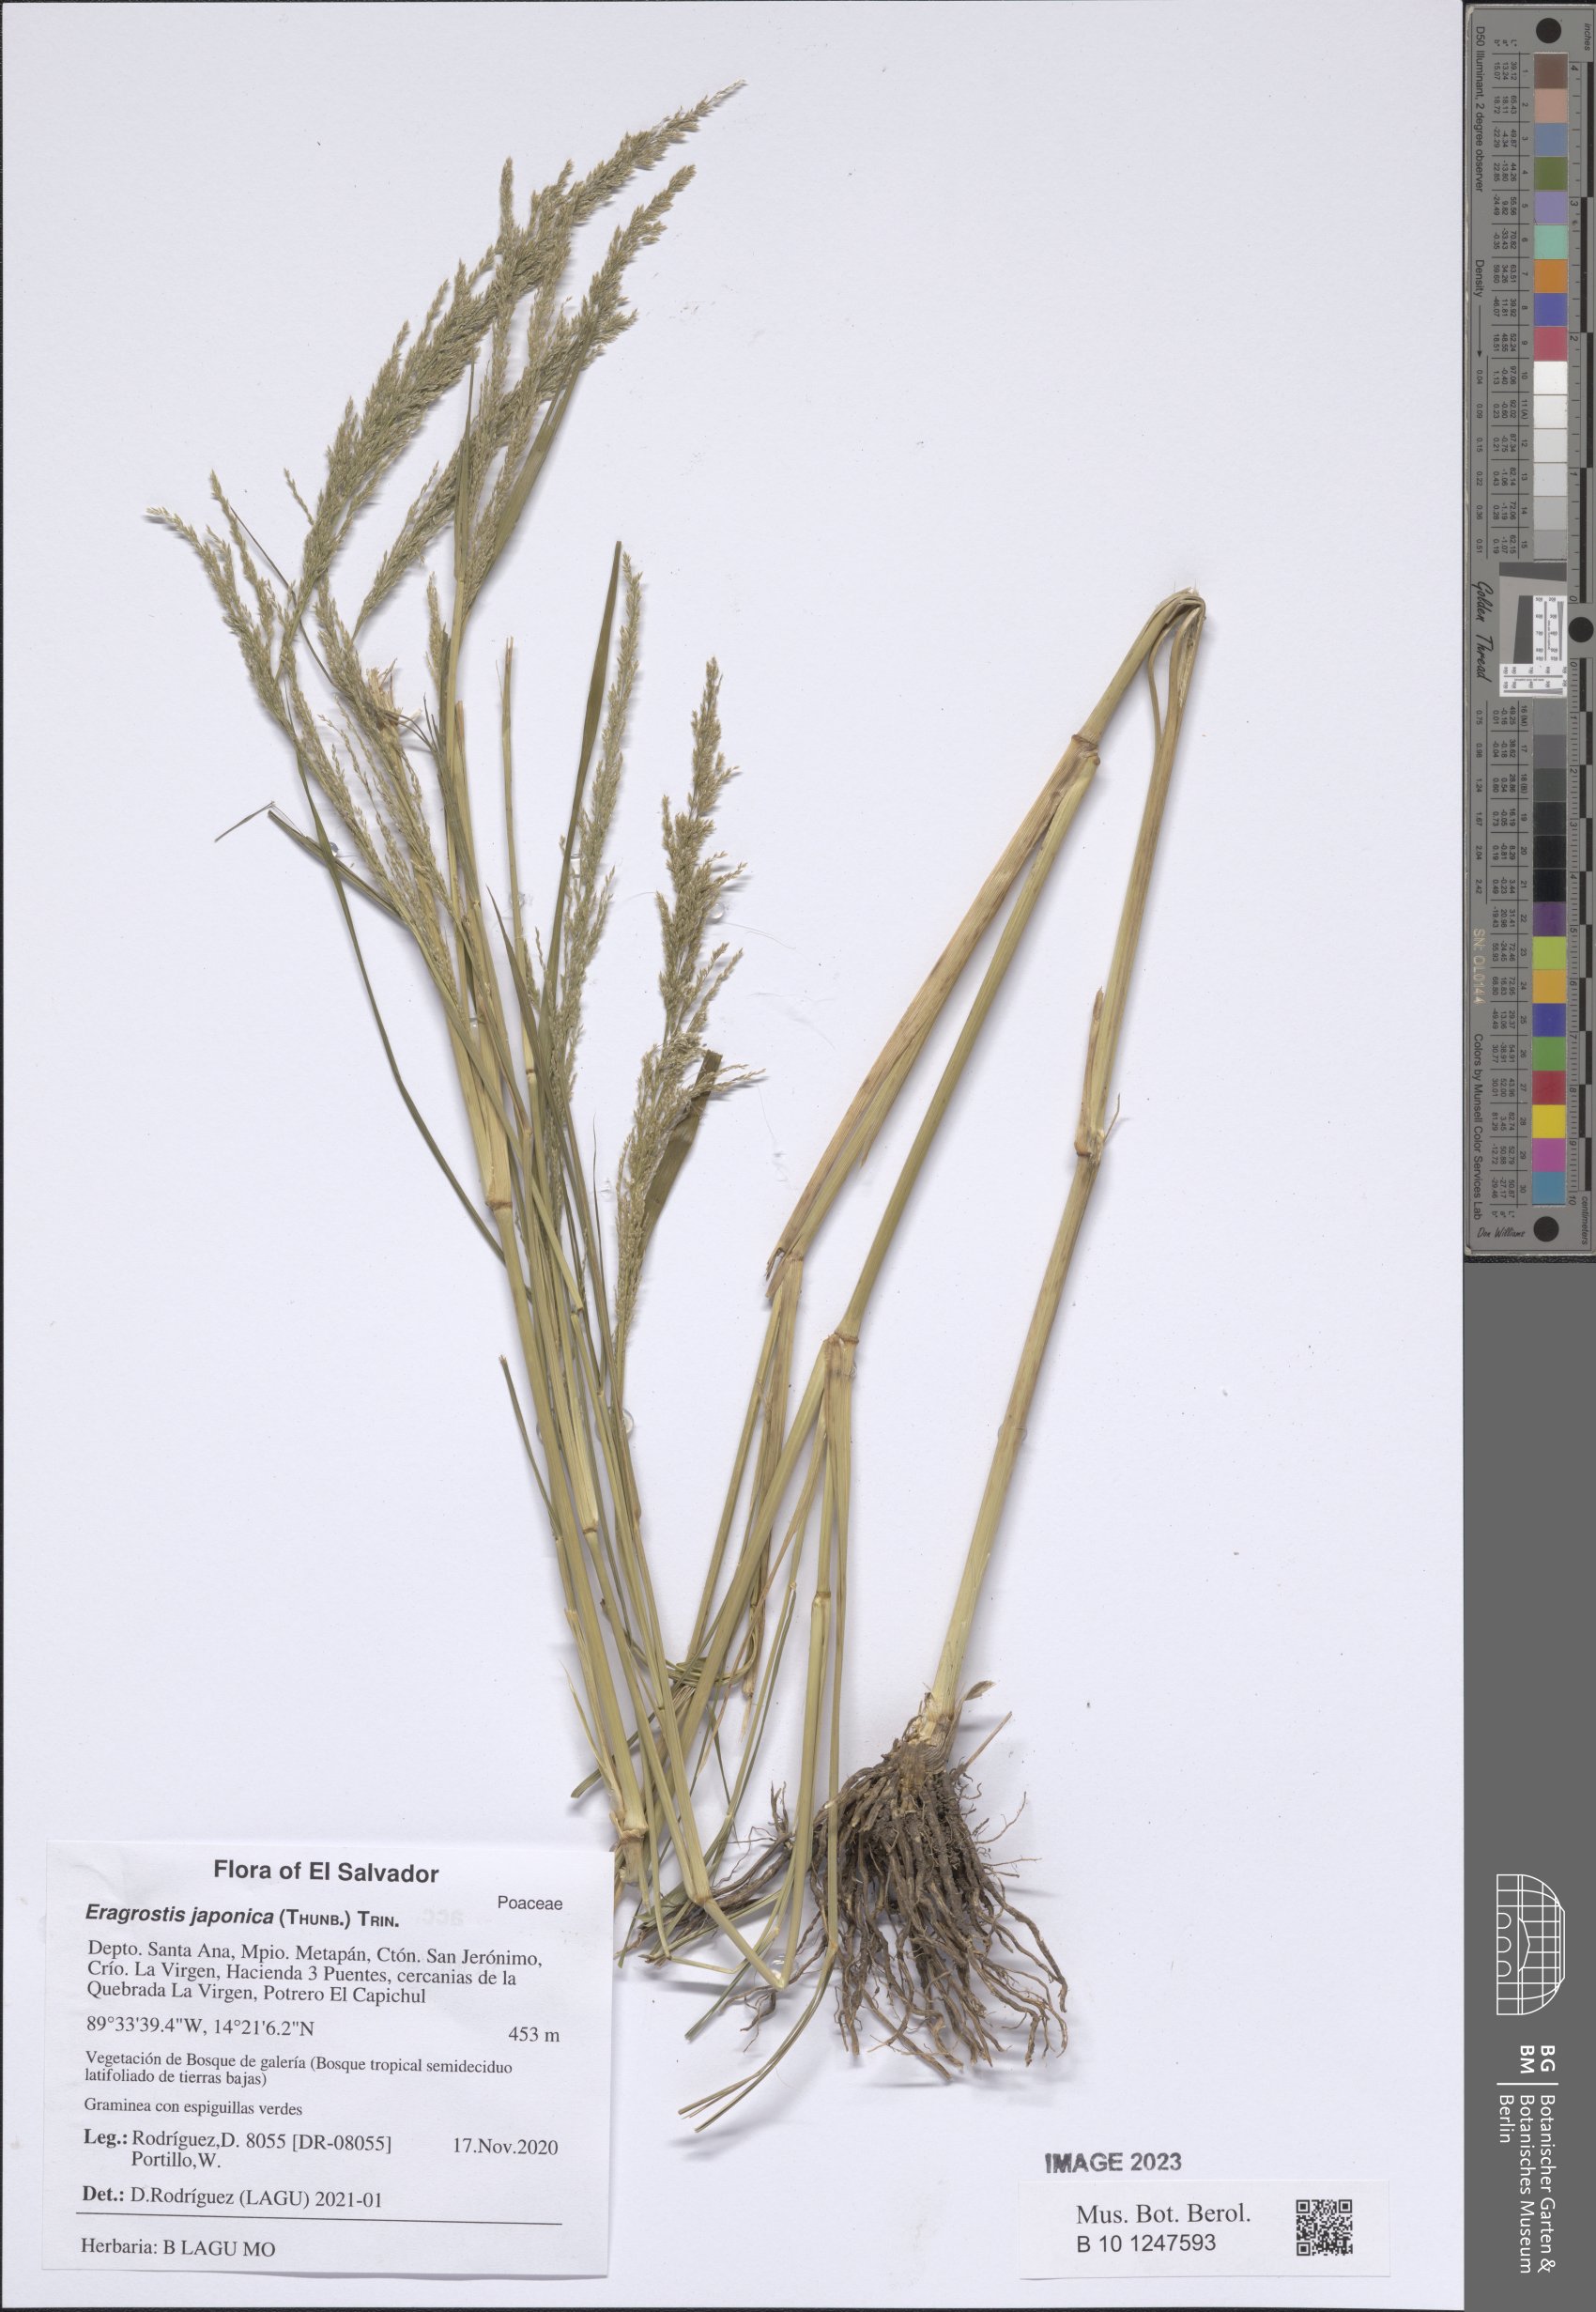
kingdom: Plantae
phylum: Tracheophyta
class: Liliopsida
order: Poales
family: Poaceae
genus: Eragrostis
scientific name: Eragrostis japonica
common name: Pond lovegrass
